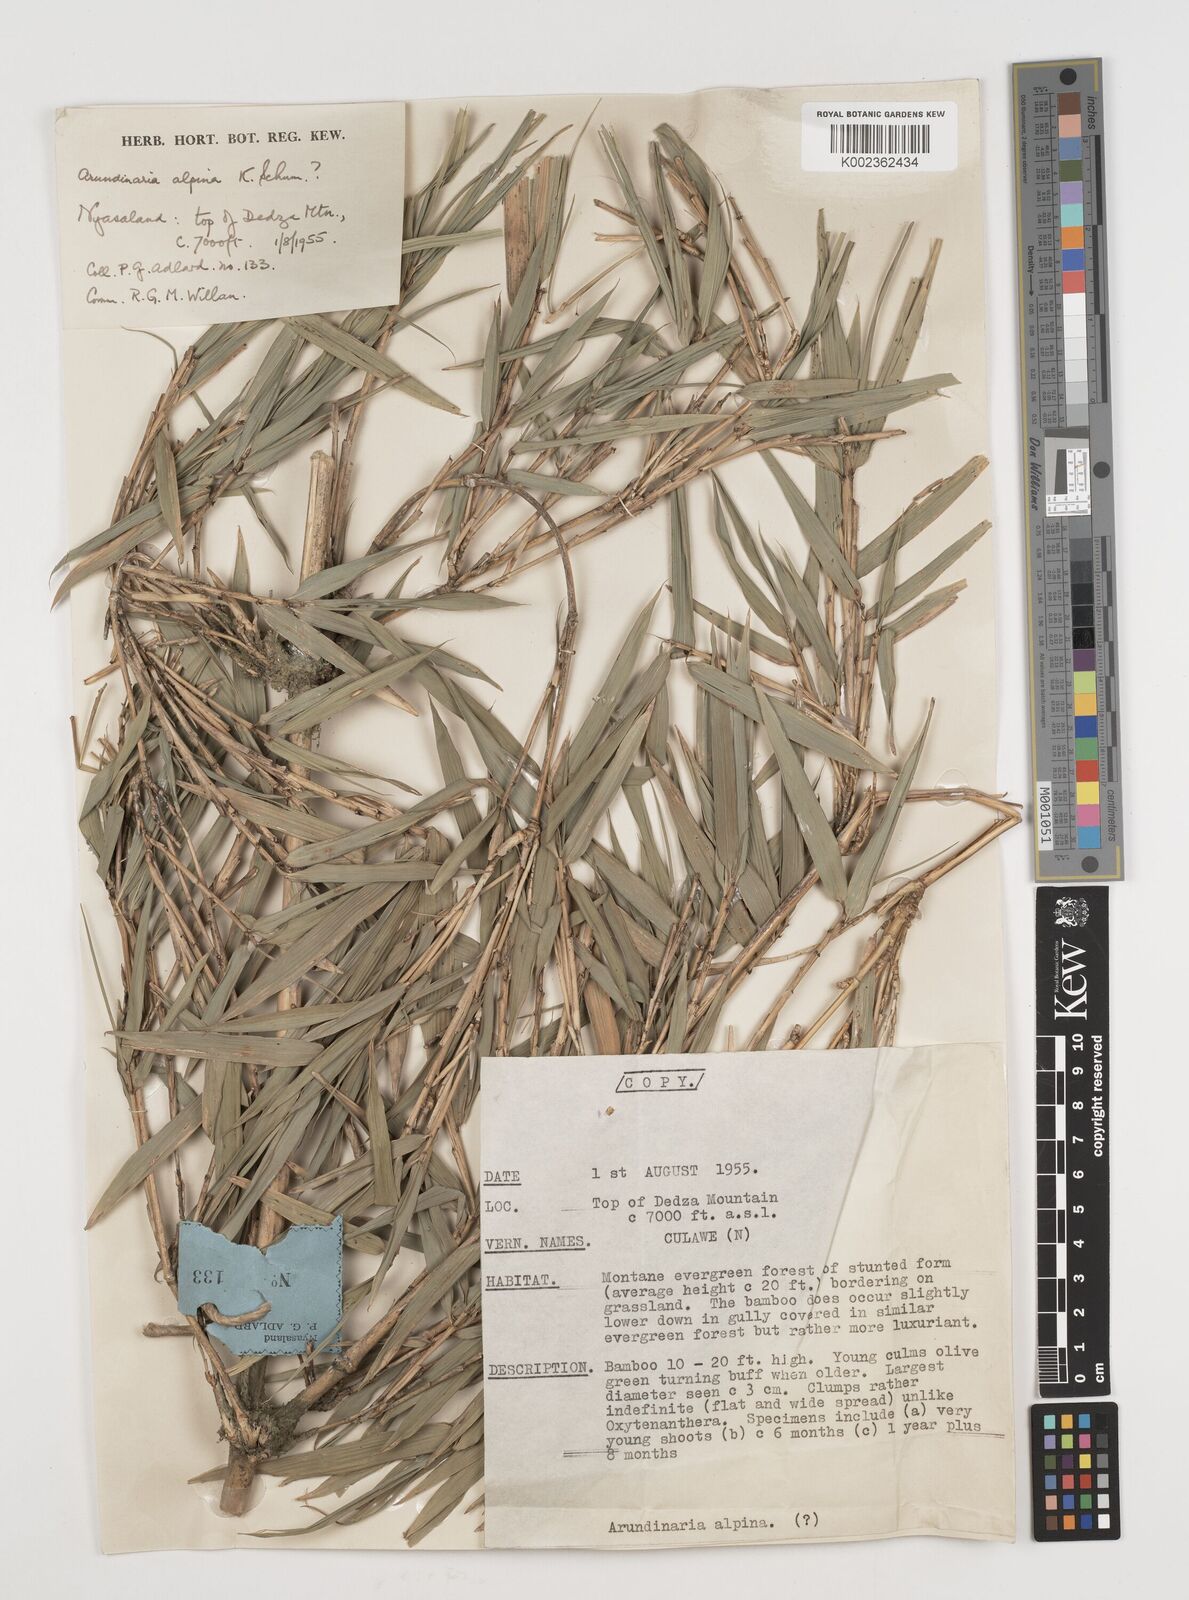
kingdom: Plantae
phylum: Tracheophyta
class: Liliopsida
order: Poales
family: Poaceae
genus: Oldeania
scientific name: Oldeania alpina
